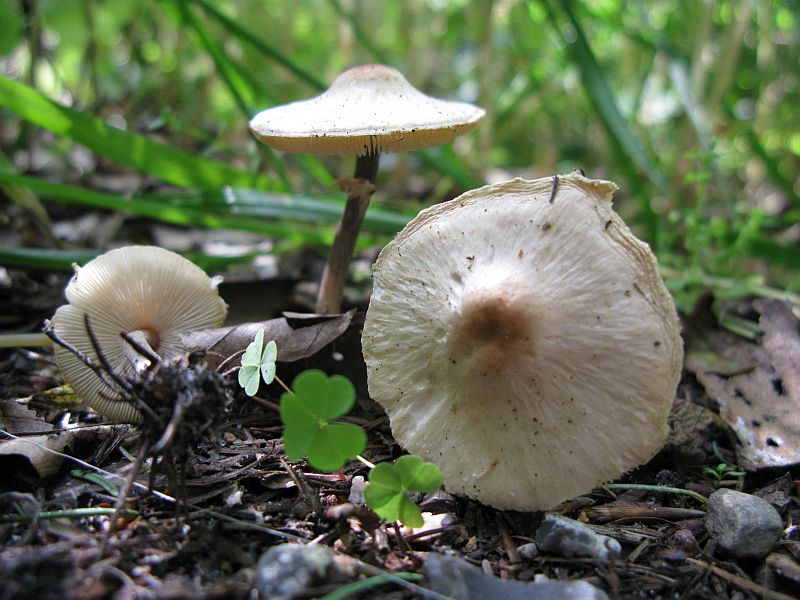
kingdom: Fungi
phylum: Basidiomycota
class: Agaricomycetes
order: Agaricales
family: Agaricaceae
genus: Lepiota
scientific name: Lepiota cristata
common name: stinkende parasolhat
